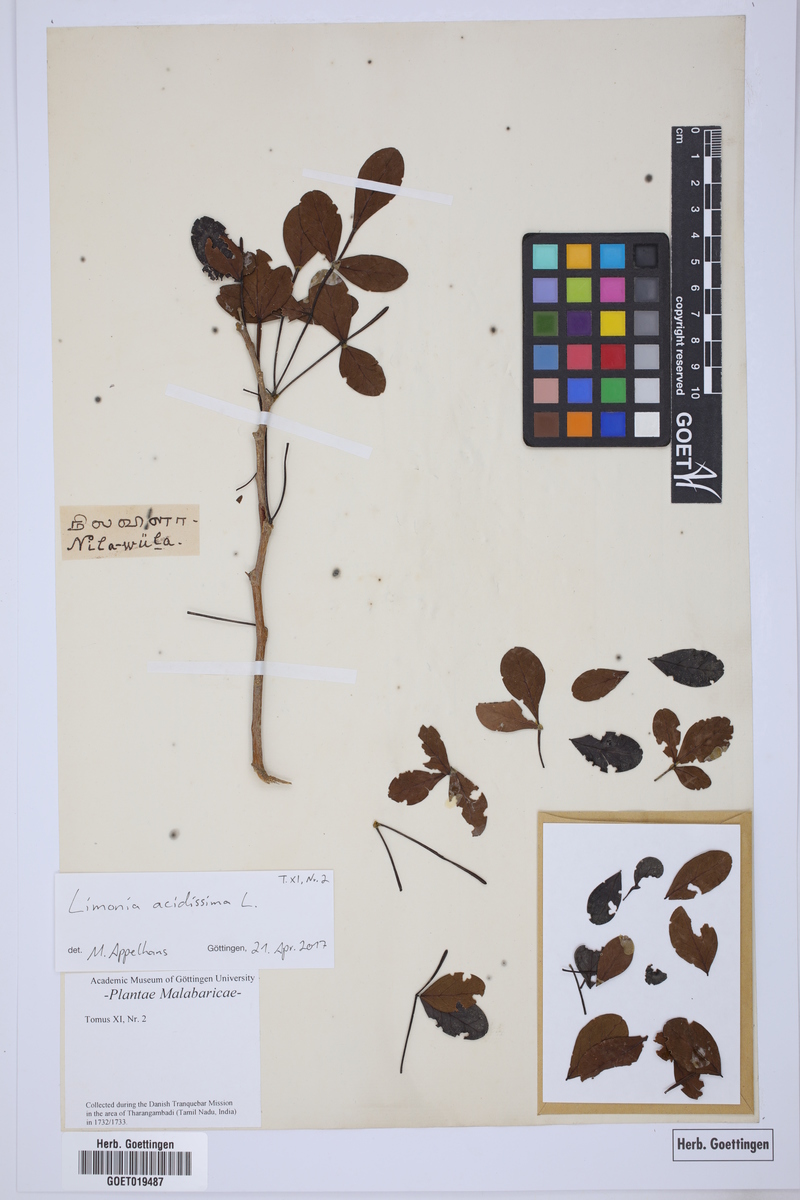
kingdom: Plantae
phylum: Tracheophyta
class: Magnoliopsida
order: Sapindales
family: Rutaceae
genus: Limonia
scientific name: Limonia acidissima
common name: Elephant apple
